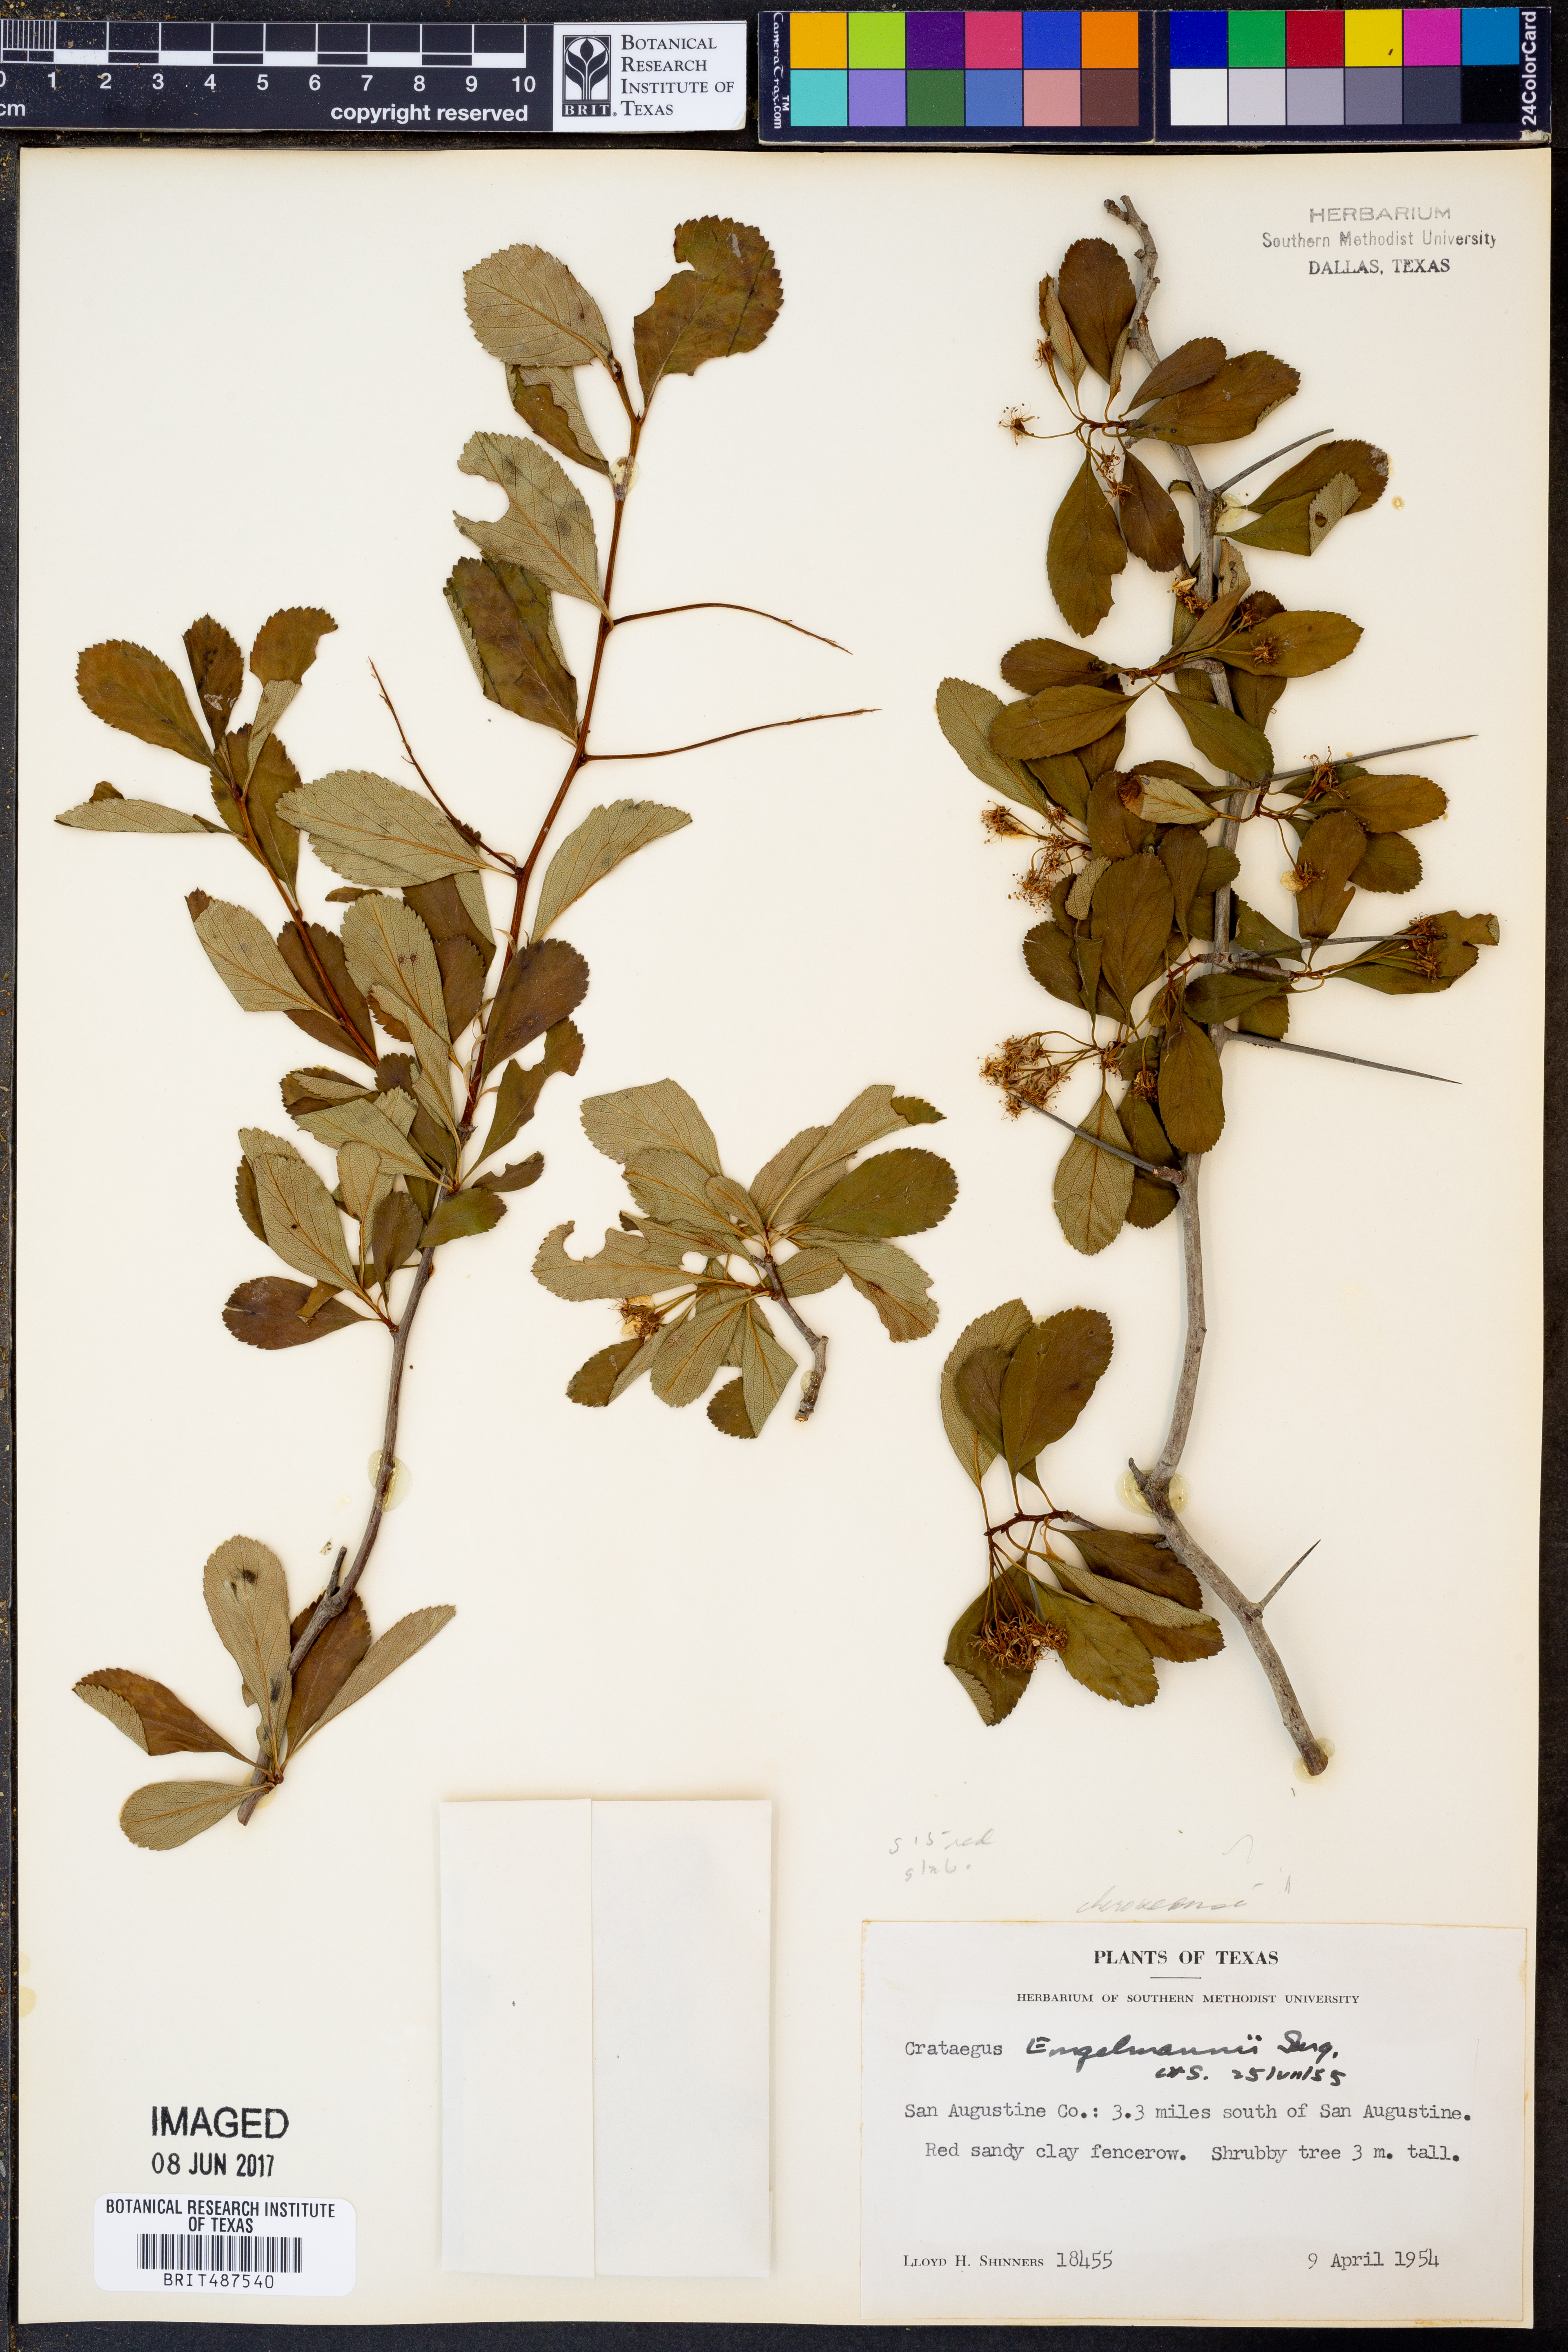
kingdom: Plantae
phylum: Tracheophyta
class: Magnoliopsida
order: Rosales
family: Rosaceae
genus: Crataegus
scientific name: Crataegus berberifolia
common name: Barberry hawthorn
